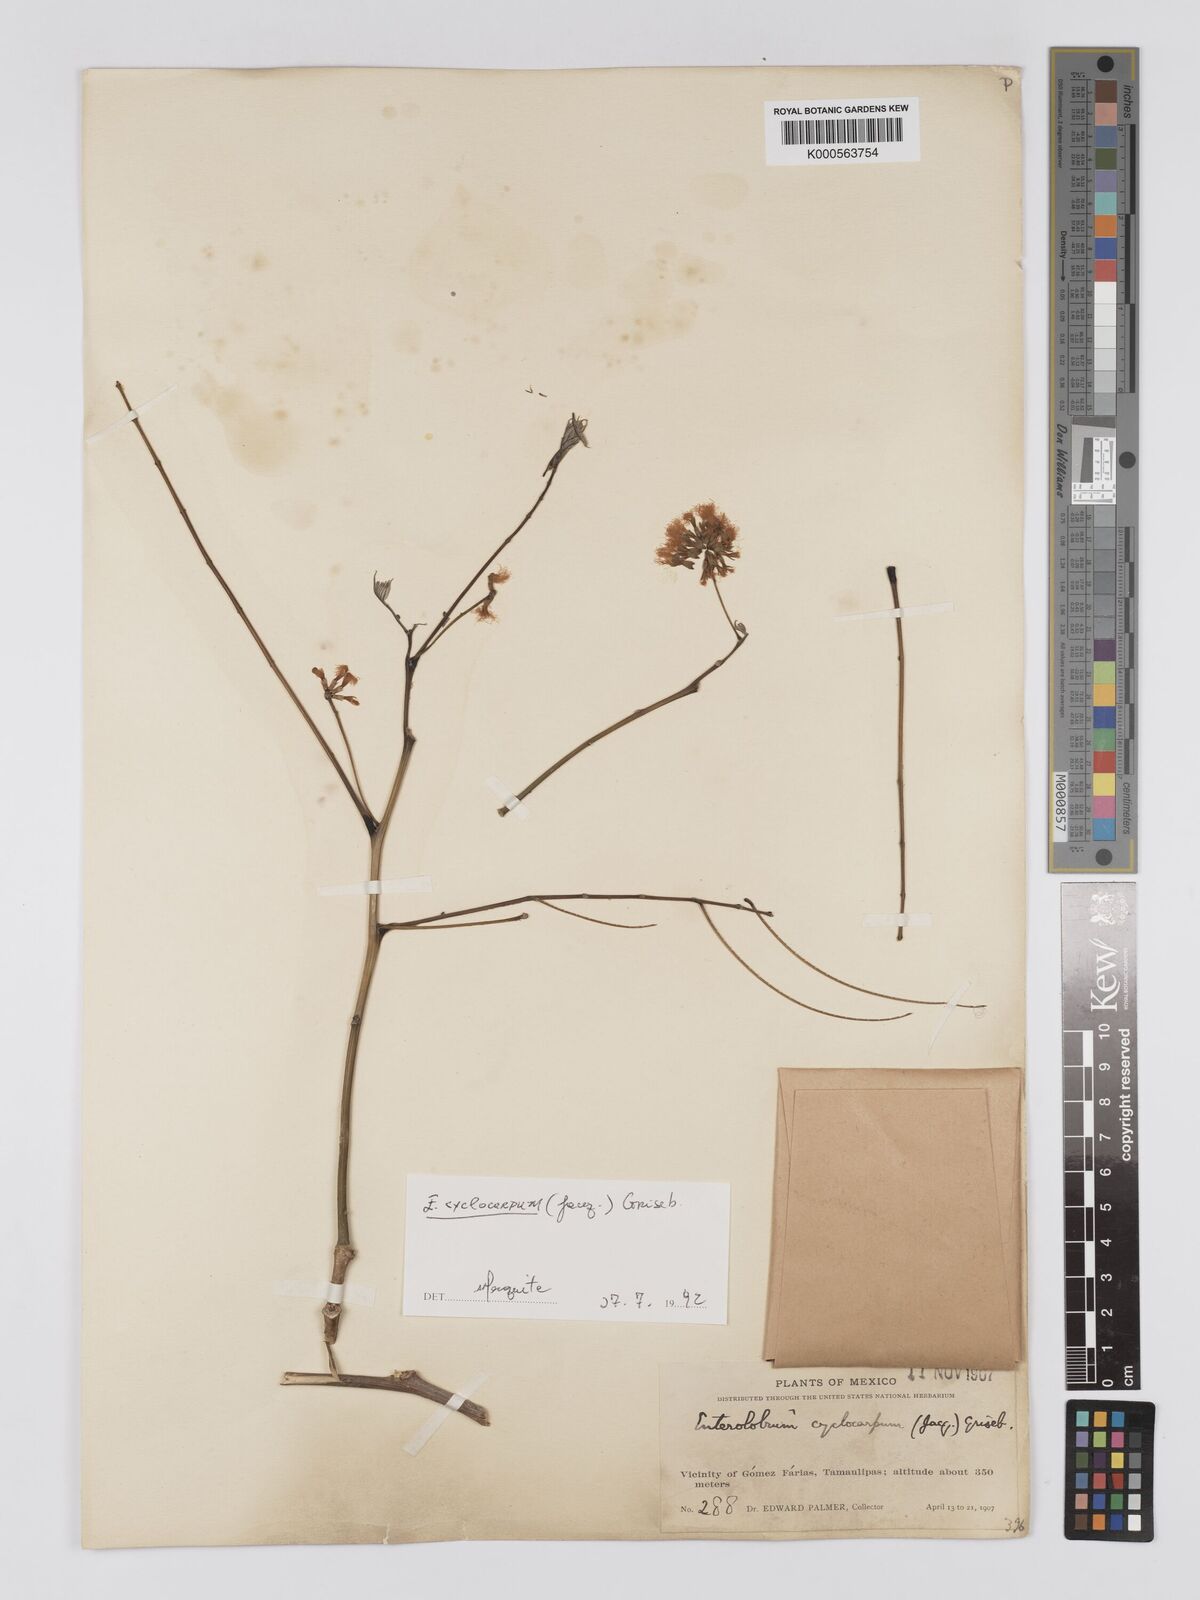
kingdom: Plantae
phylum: Tracheophyta
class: Magnoliopsida
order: Fabales
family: Fabaceae
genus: Enterolobium
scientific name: Enterolobium cyclocarpum
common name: Ear tree
